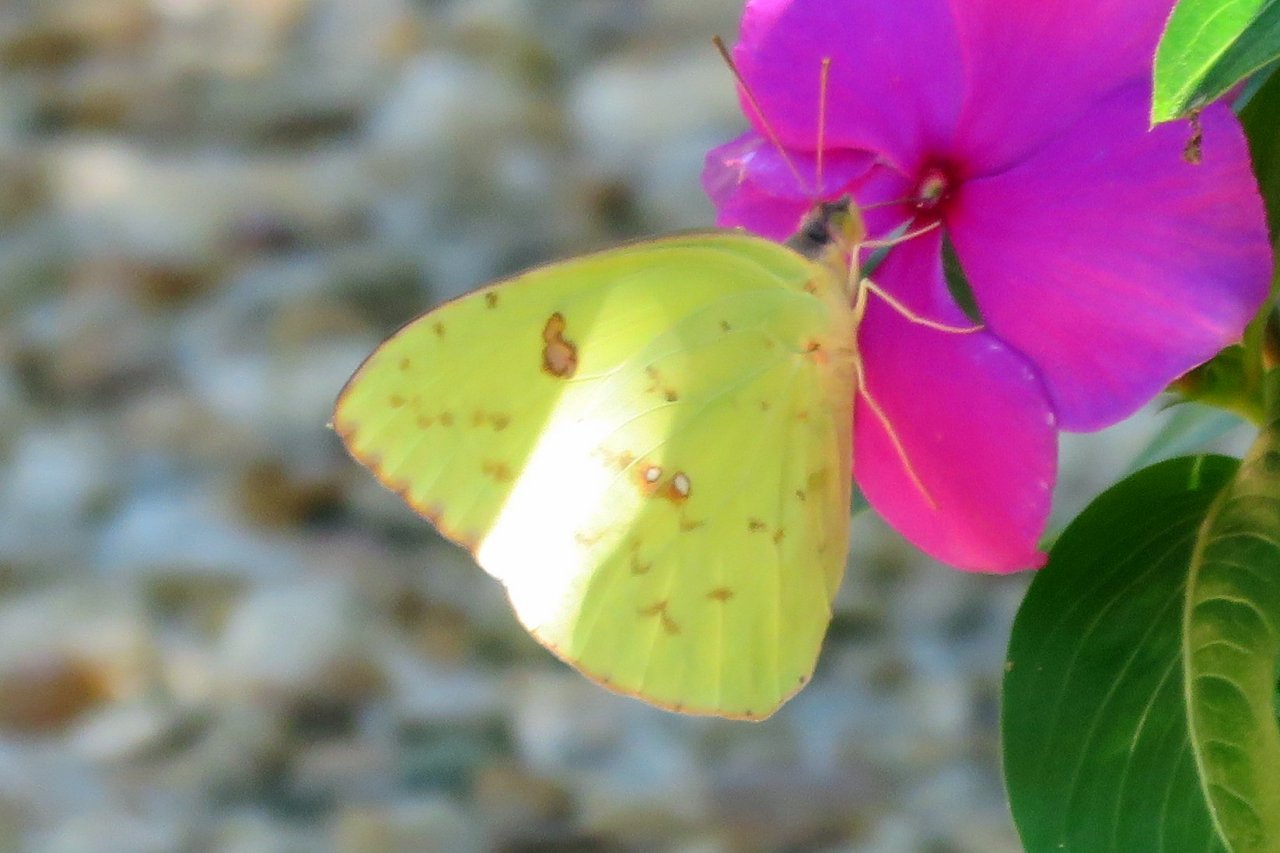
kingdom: Animalia
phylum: Arthropoda
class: Insecta
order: Lepidoptera
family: Pieridae
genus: Phoebis
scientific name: Phoebis sennae
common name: Cloudless Sulphur
